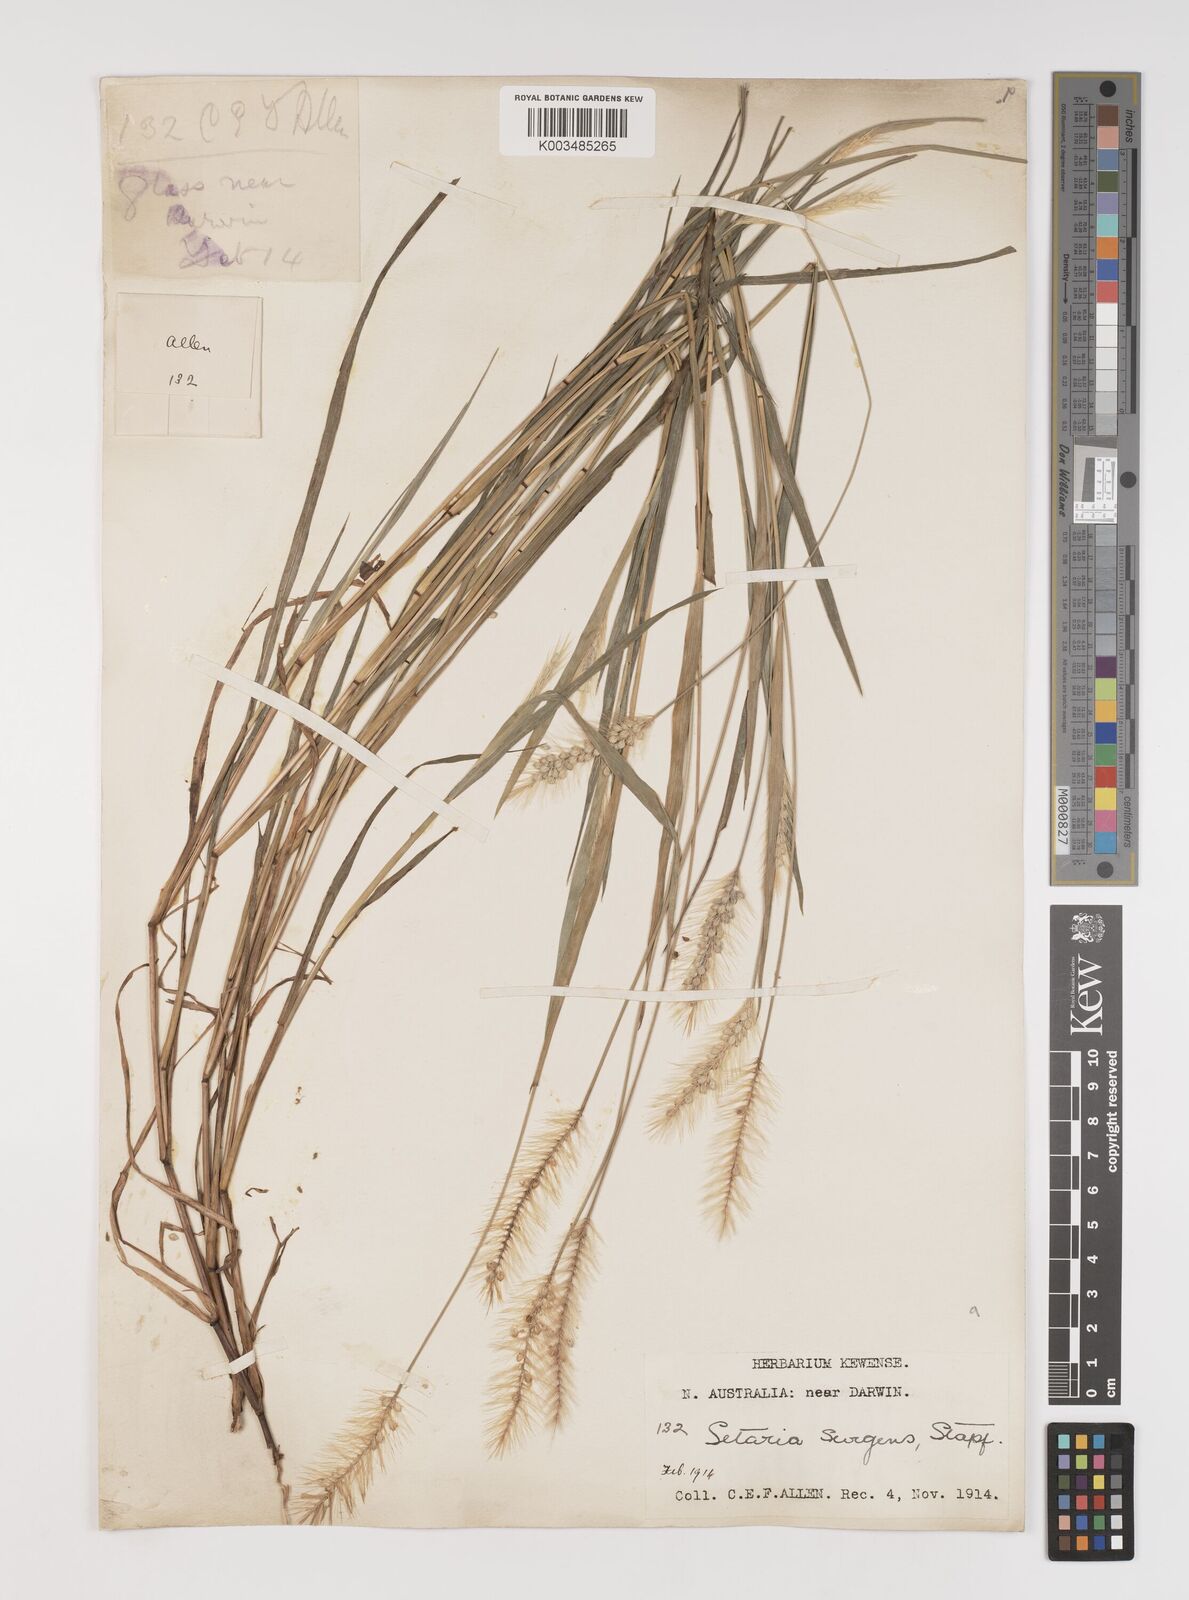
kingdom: Plantae
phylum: Tracheophyta
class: Liliopsida
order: Poales
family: Poaceae
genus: Setaria
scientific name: Setaria surgens
